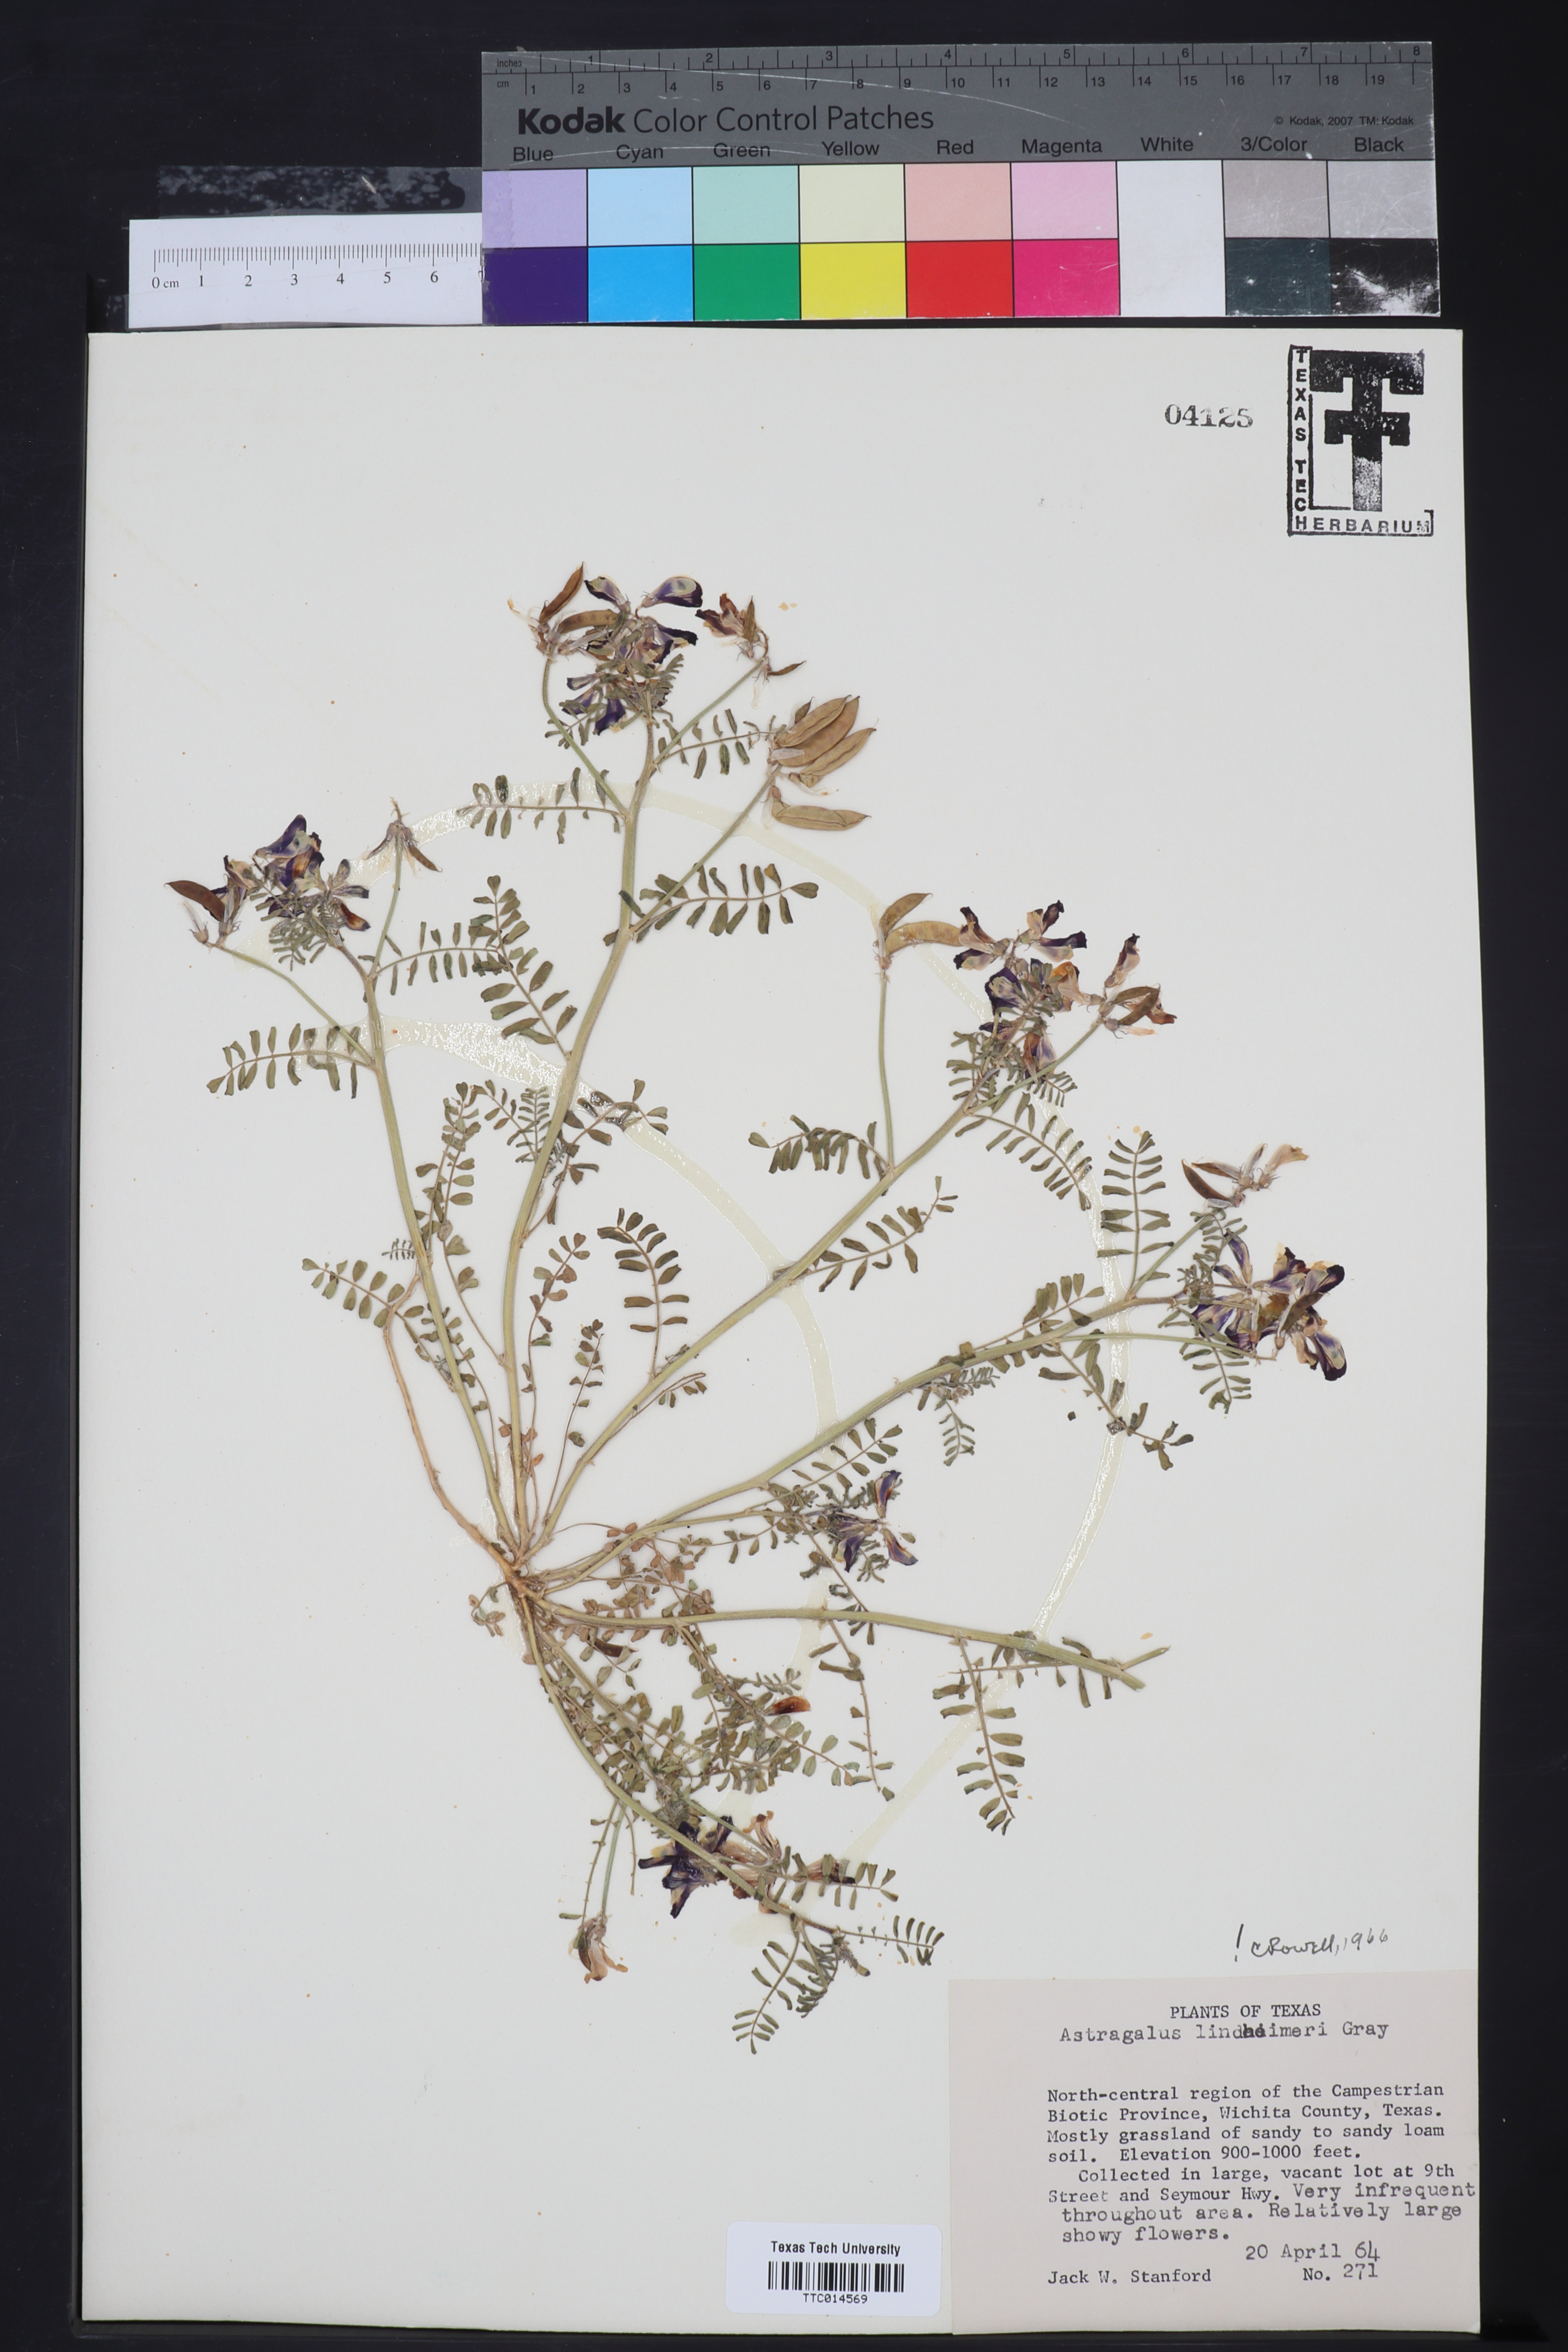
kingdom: Plantae
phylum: Tracheophyta
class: Magnoliopsida
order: Fabales
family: Fabaceae
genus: Astragalus
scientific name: Astragalus lindheimeri
